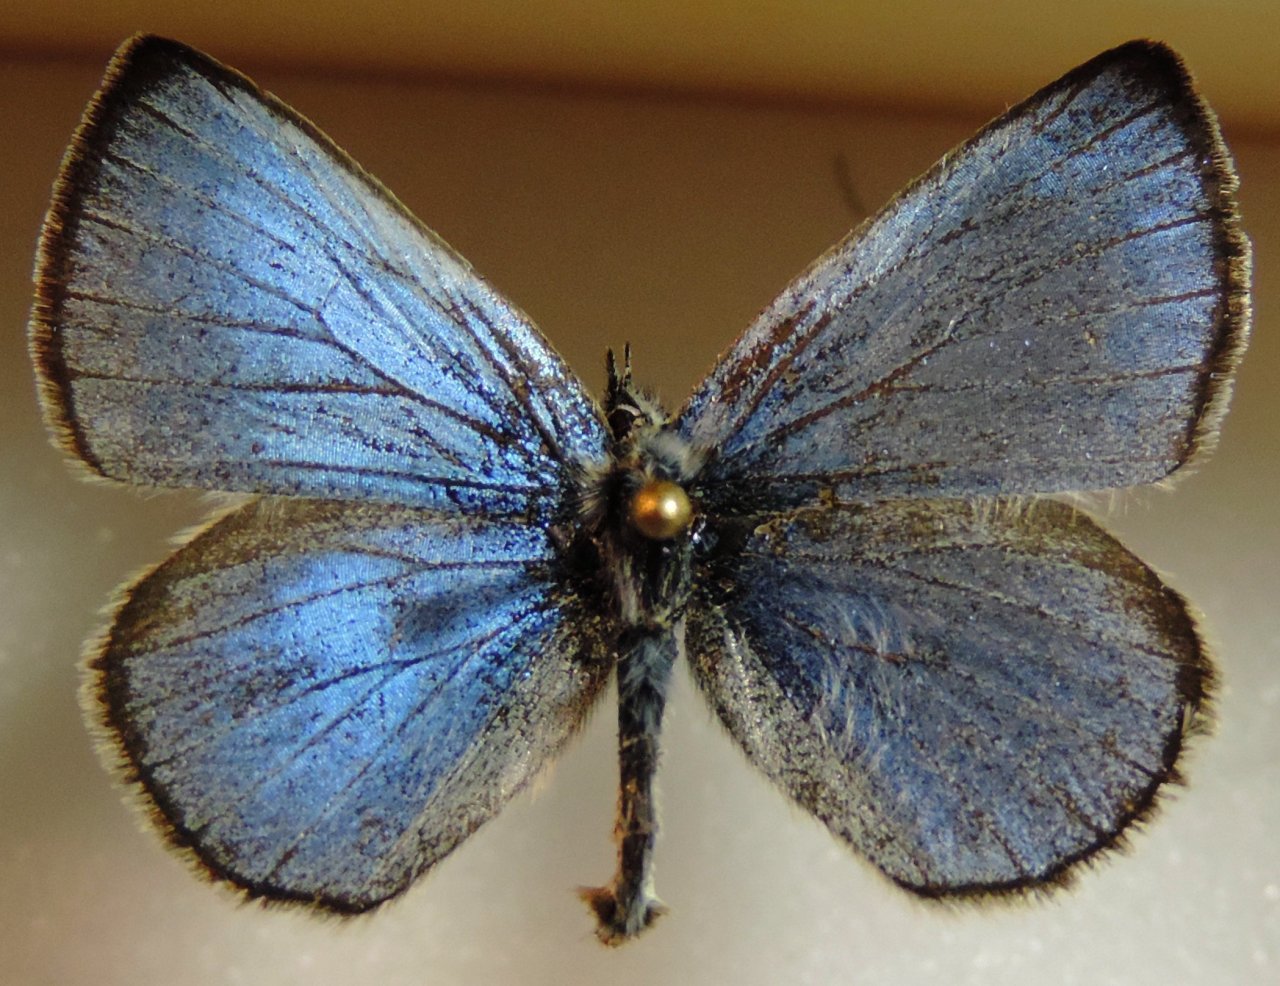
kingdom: Animalia
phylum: Arthropoda
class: Insecta
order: Lepidoptera
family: Lycaenidae
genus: Glaucopsyche
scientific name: Glaucopsyche lygdamus
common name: Silvery Blue
